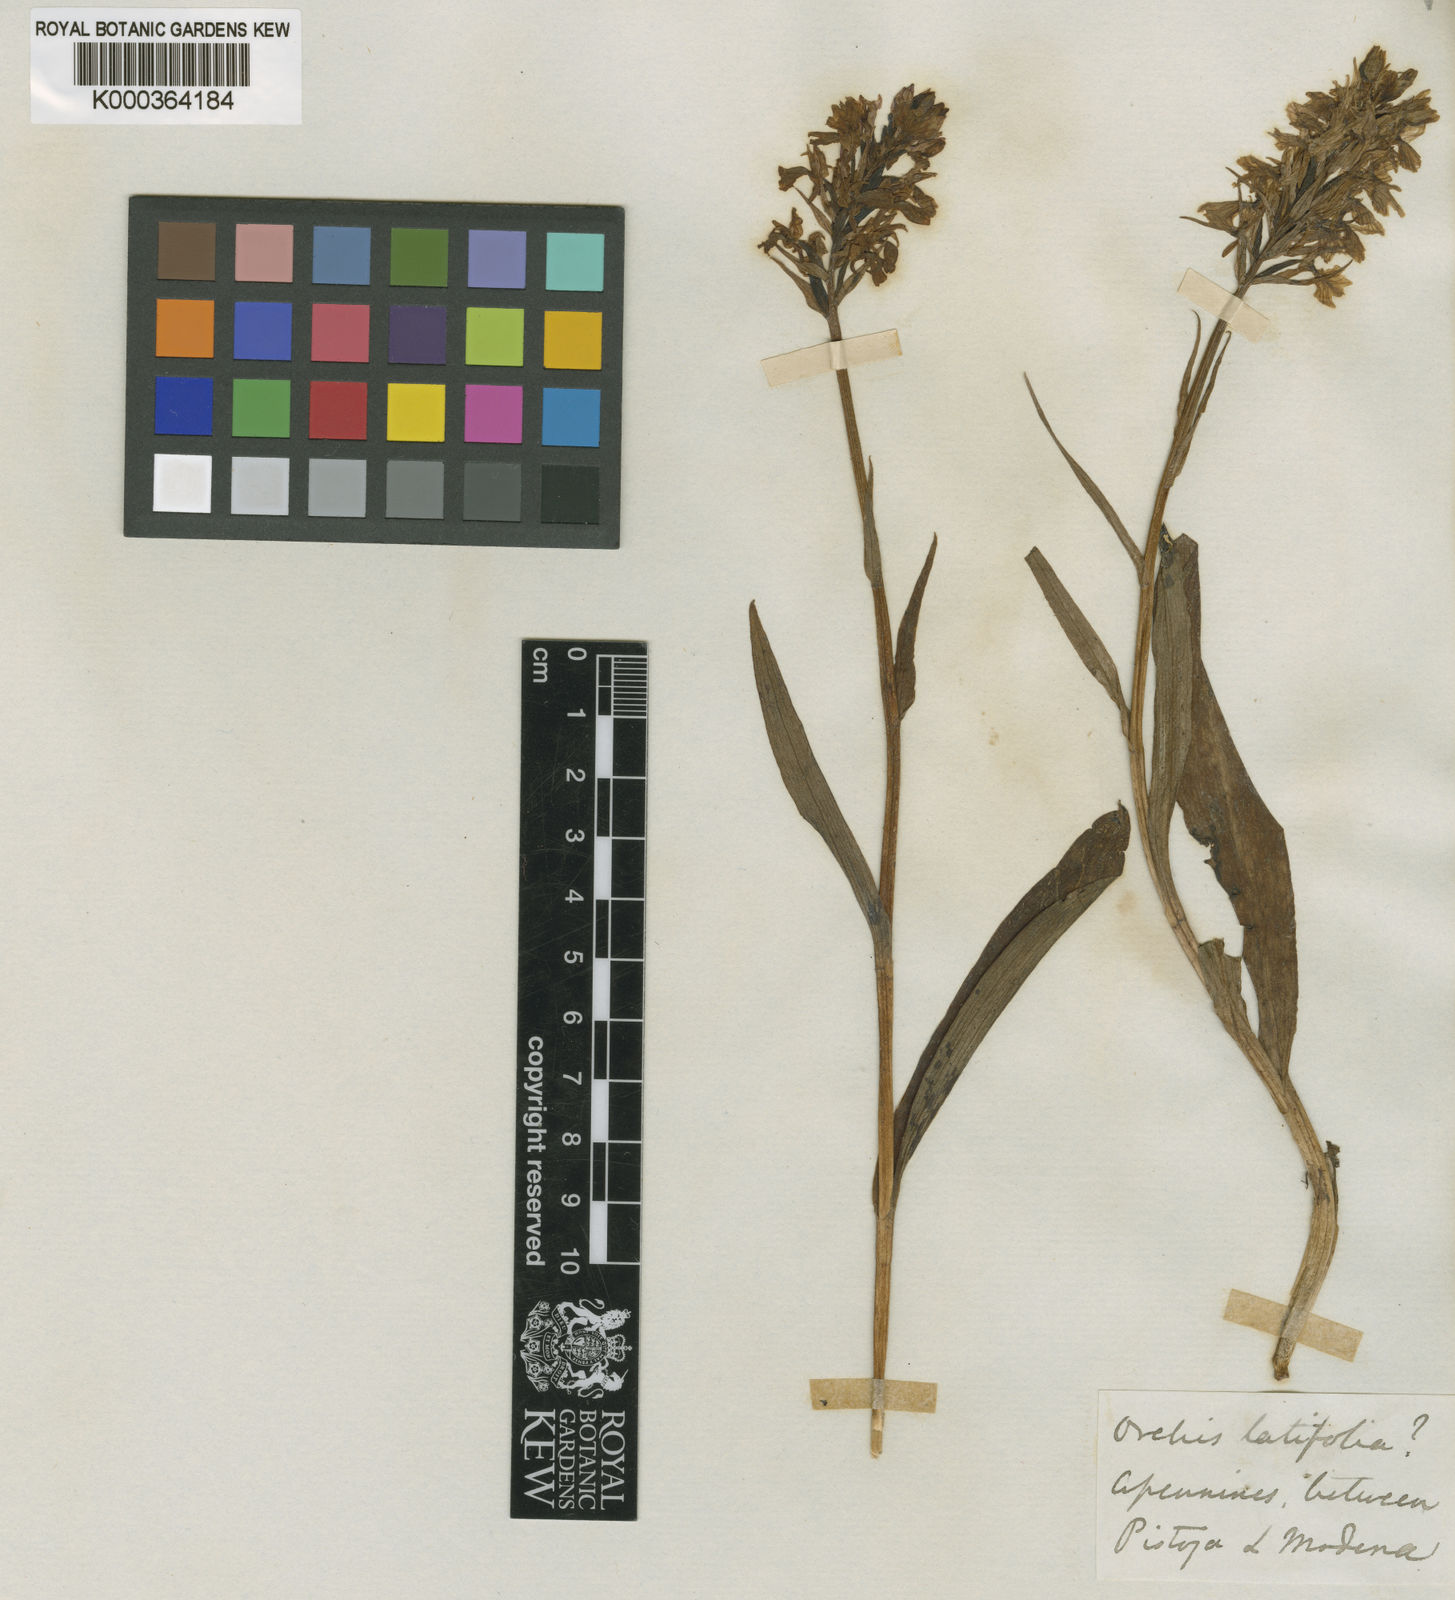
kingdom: Plantae
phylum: Tracheophyta
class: Liliopsida
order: Asparagales
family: Orchidaceae
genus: Dactylorhiza
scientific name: Dactylorhiza
